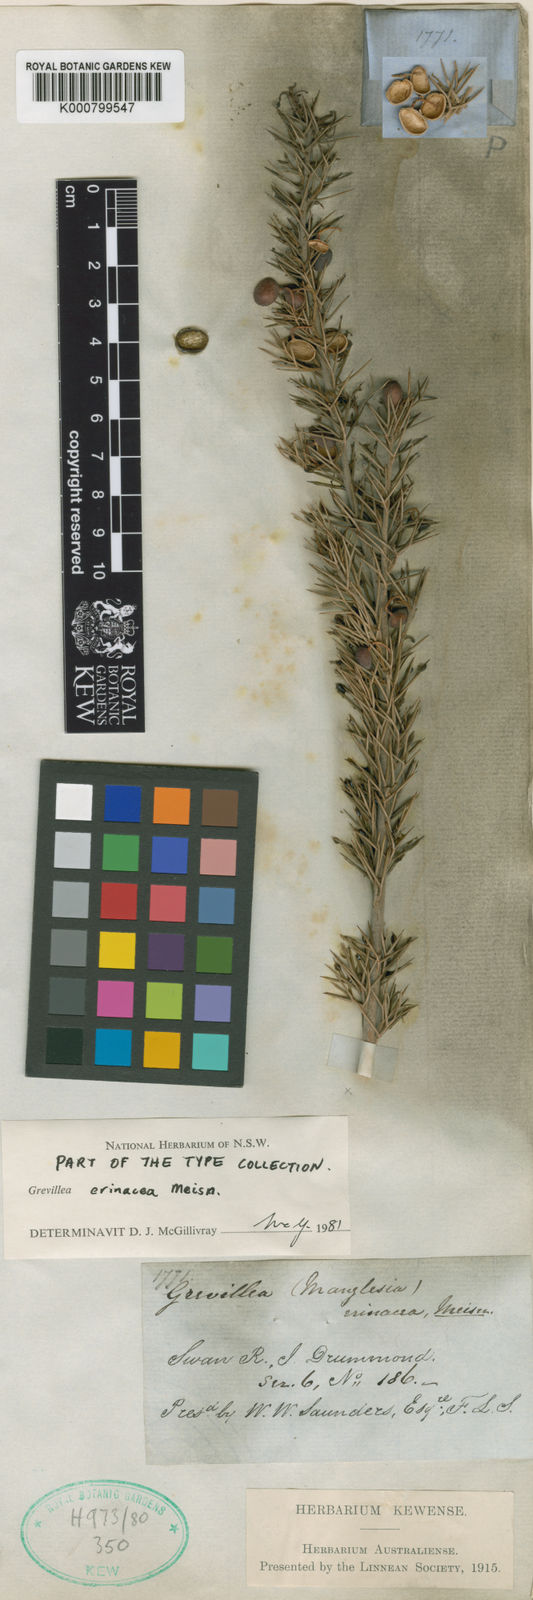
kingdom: Plantae
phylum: Tracheophyta
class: Magnoliopsida
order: Proteales
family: Proteaceae
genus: Grevillea
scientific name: Grevillea erinacea
